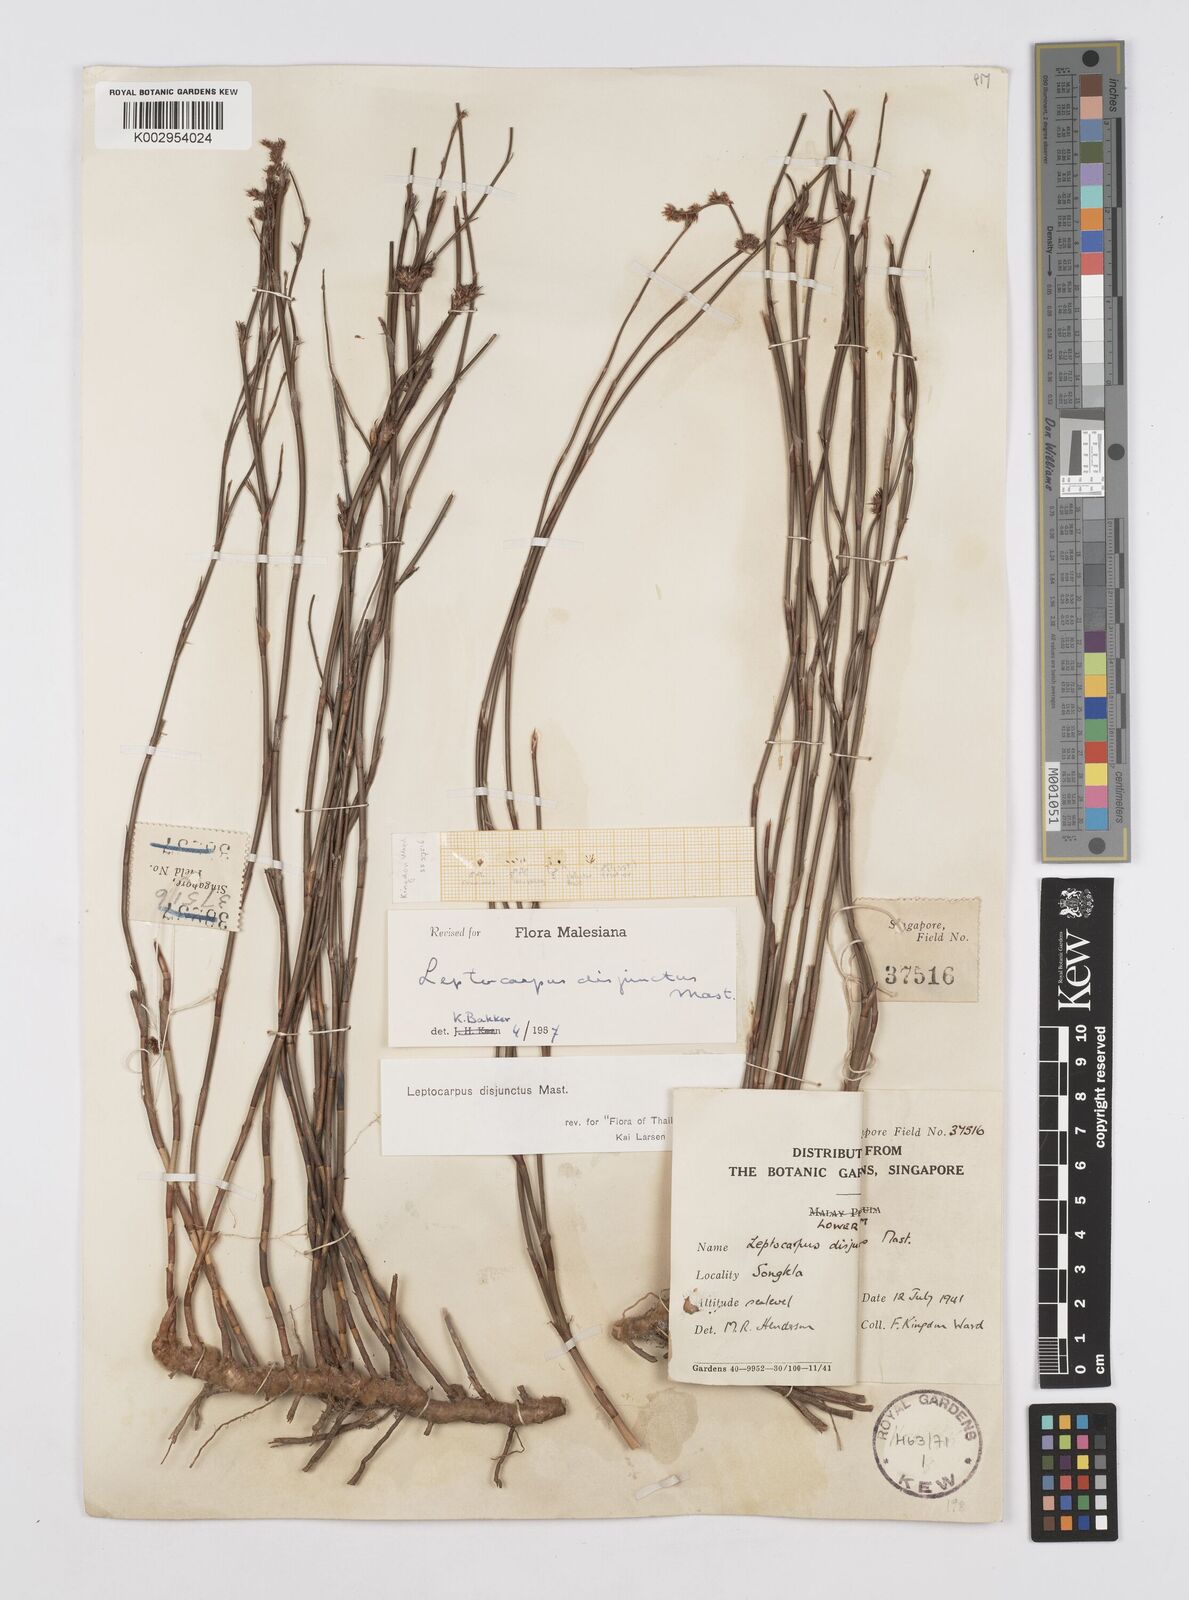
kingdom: Plantae
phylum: Tracheophyta
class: Liliopsida
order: Poales
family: Restionaceae
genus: Dapsilanthus
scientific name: Dapsilanthus disjunctus
